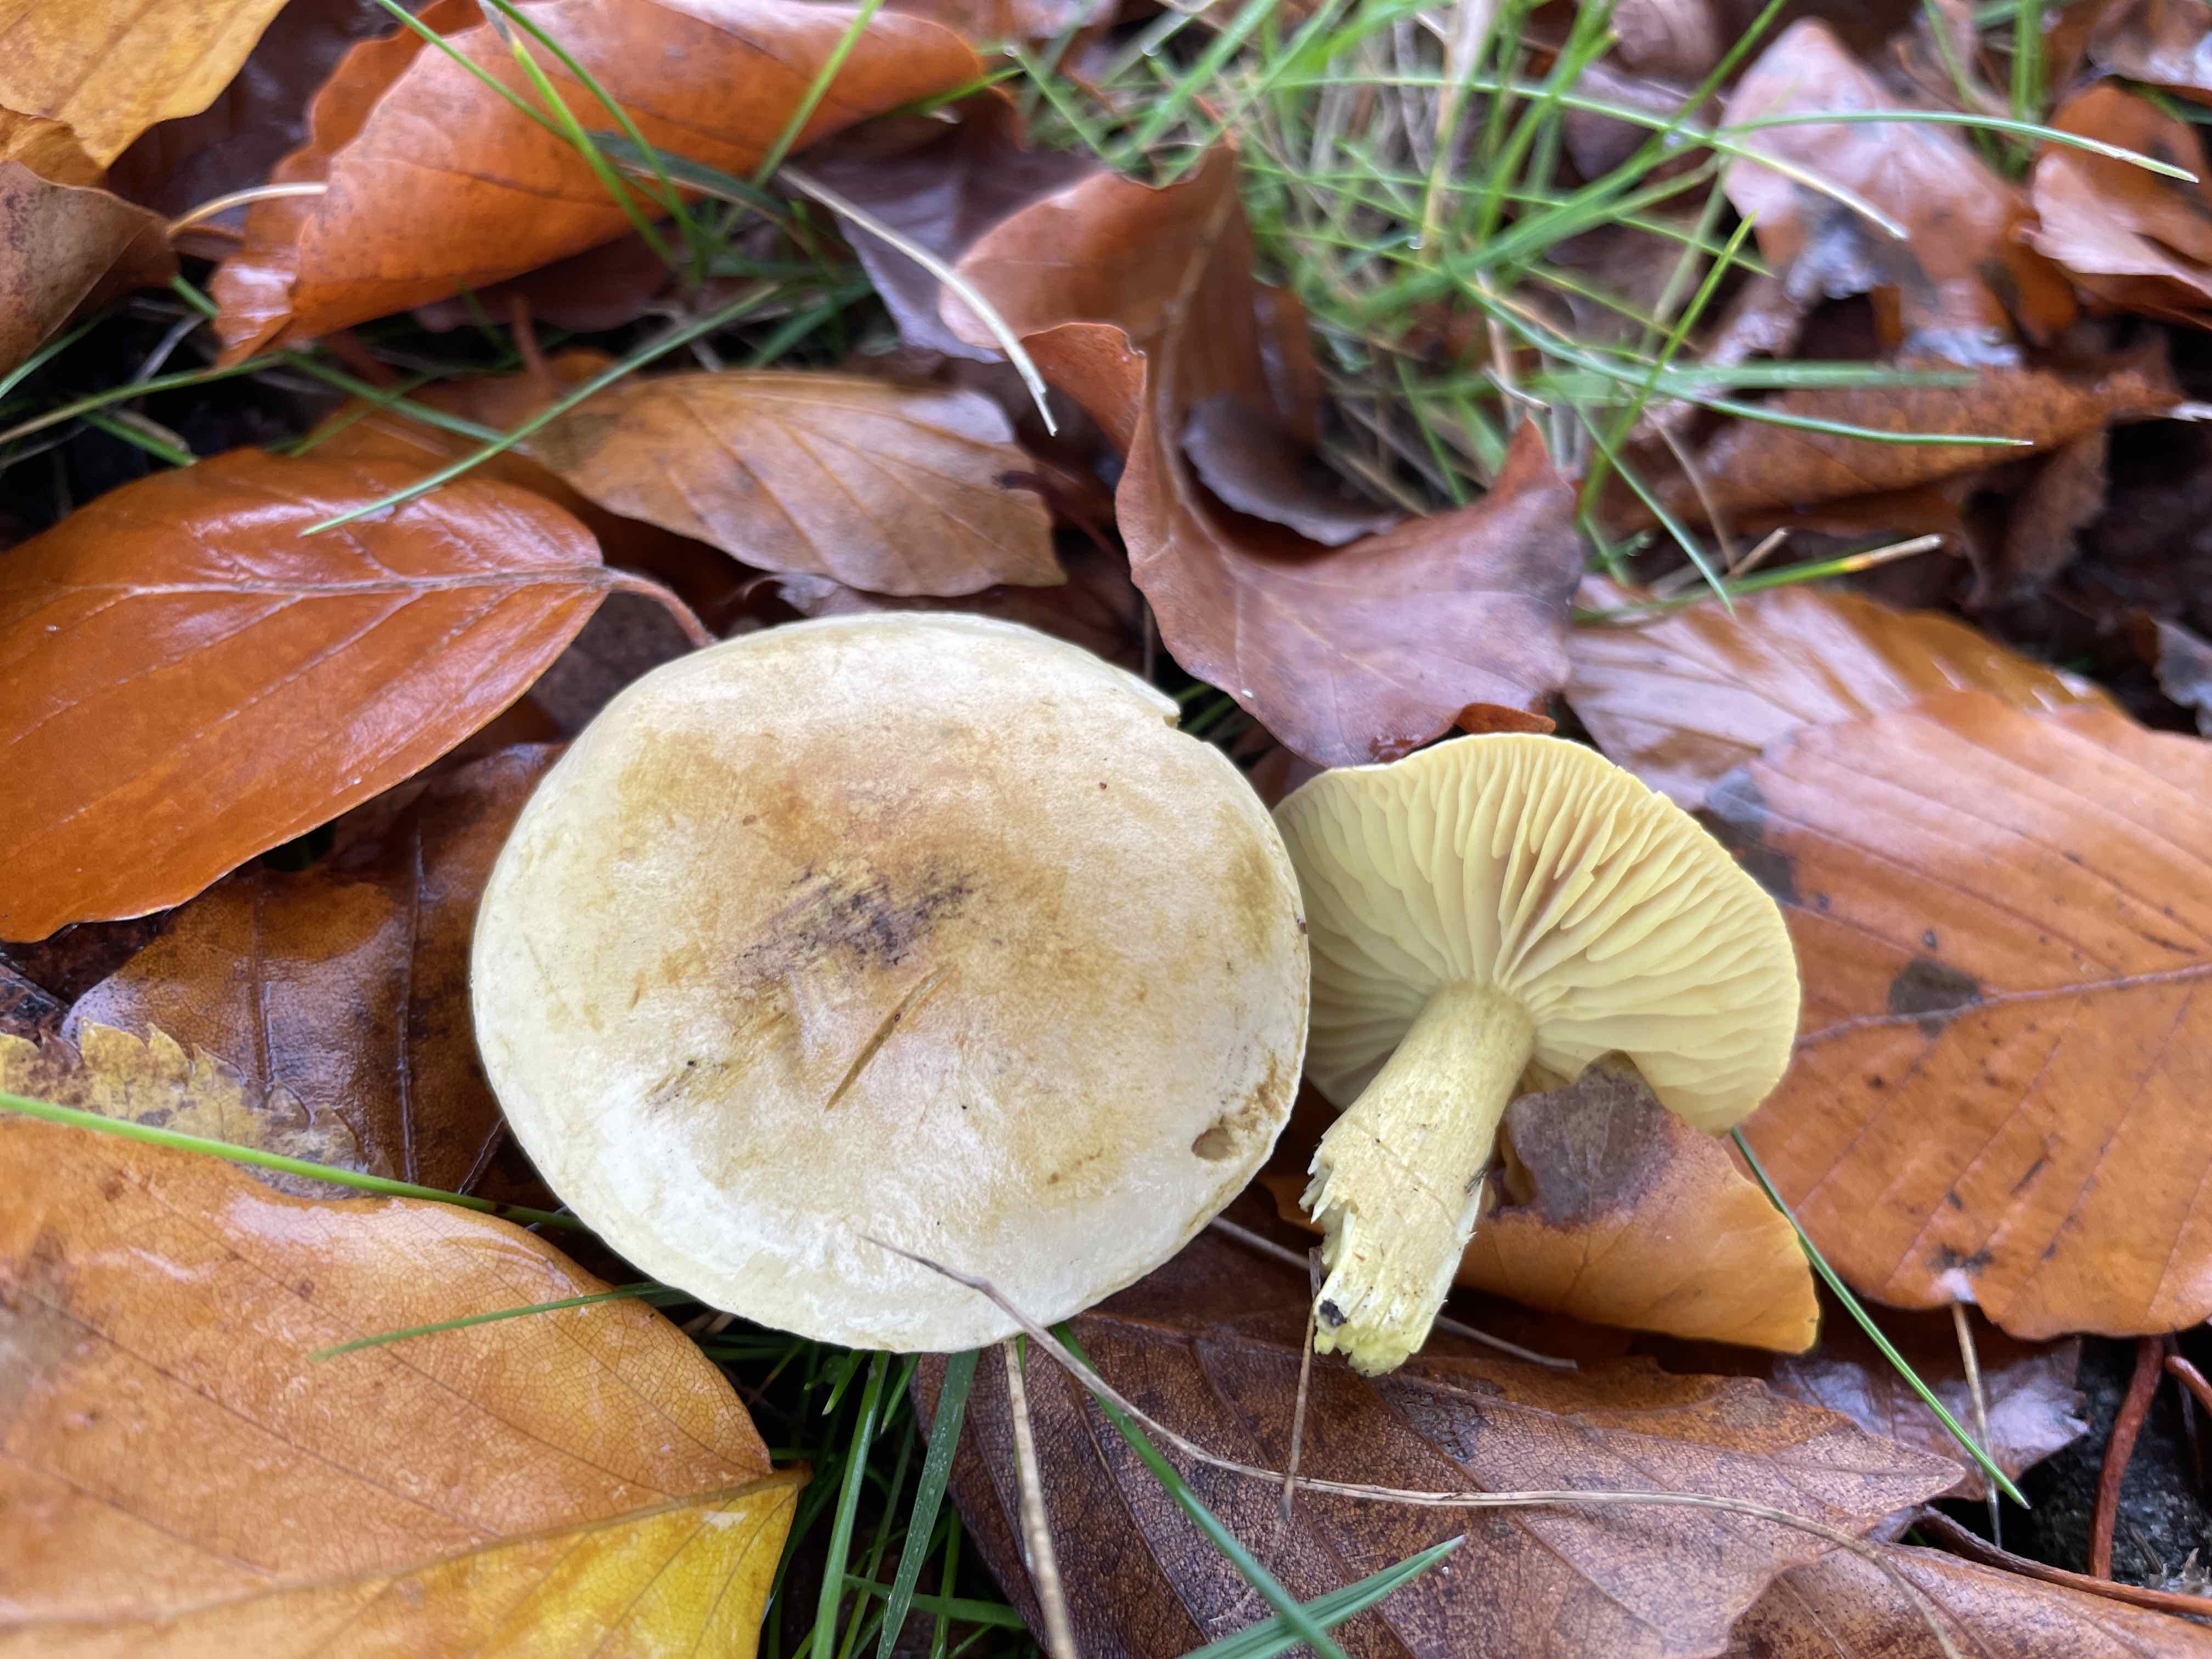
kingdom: Fungi
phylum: Basidiomycota
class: Agaricomycetes
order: Agaricales
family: Tricholomataceae
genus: Tricholoma
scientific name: Tricholoma sulphureum
